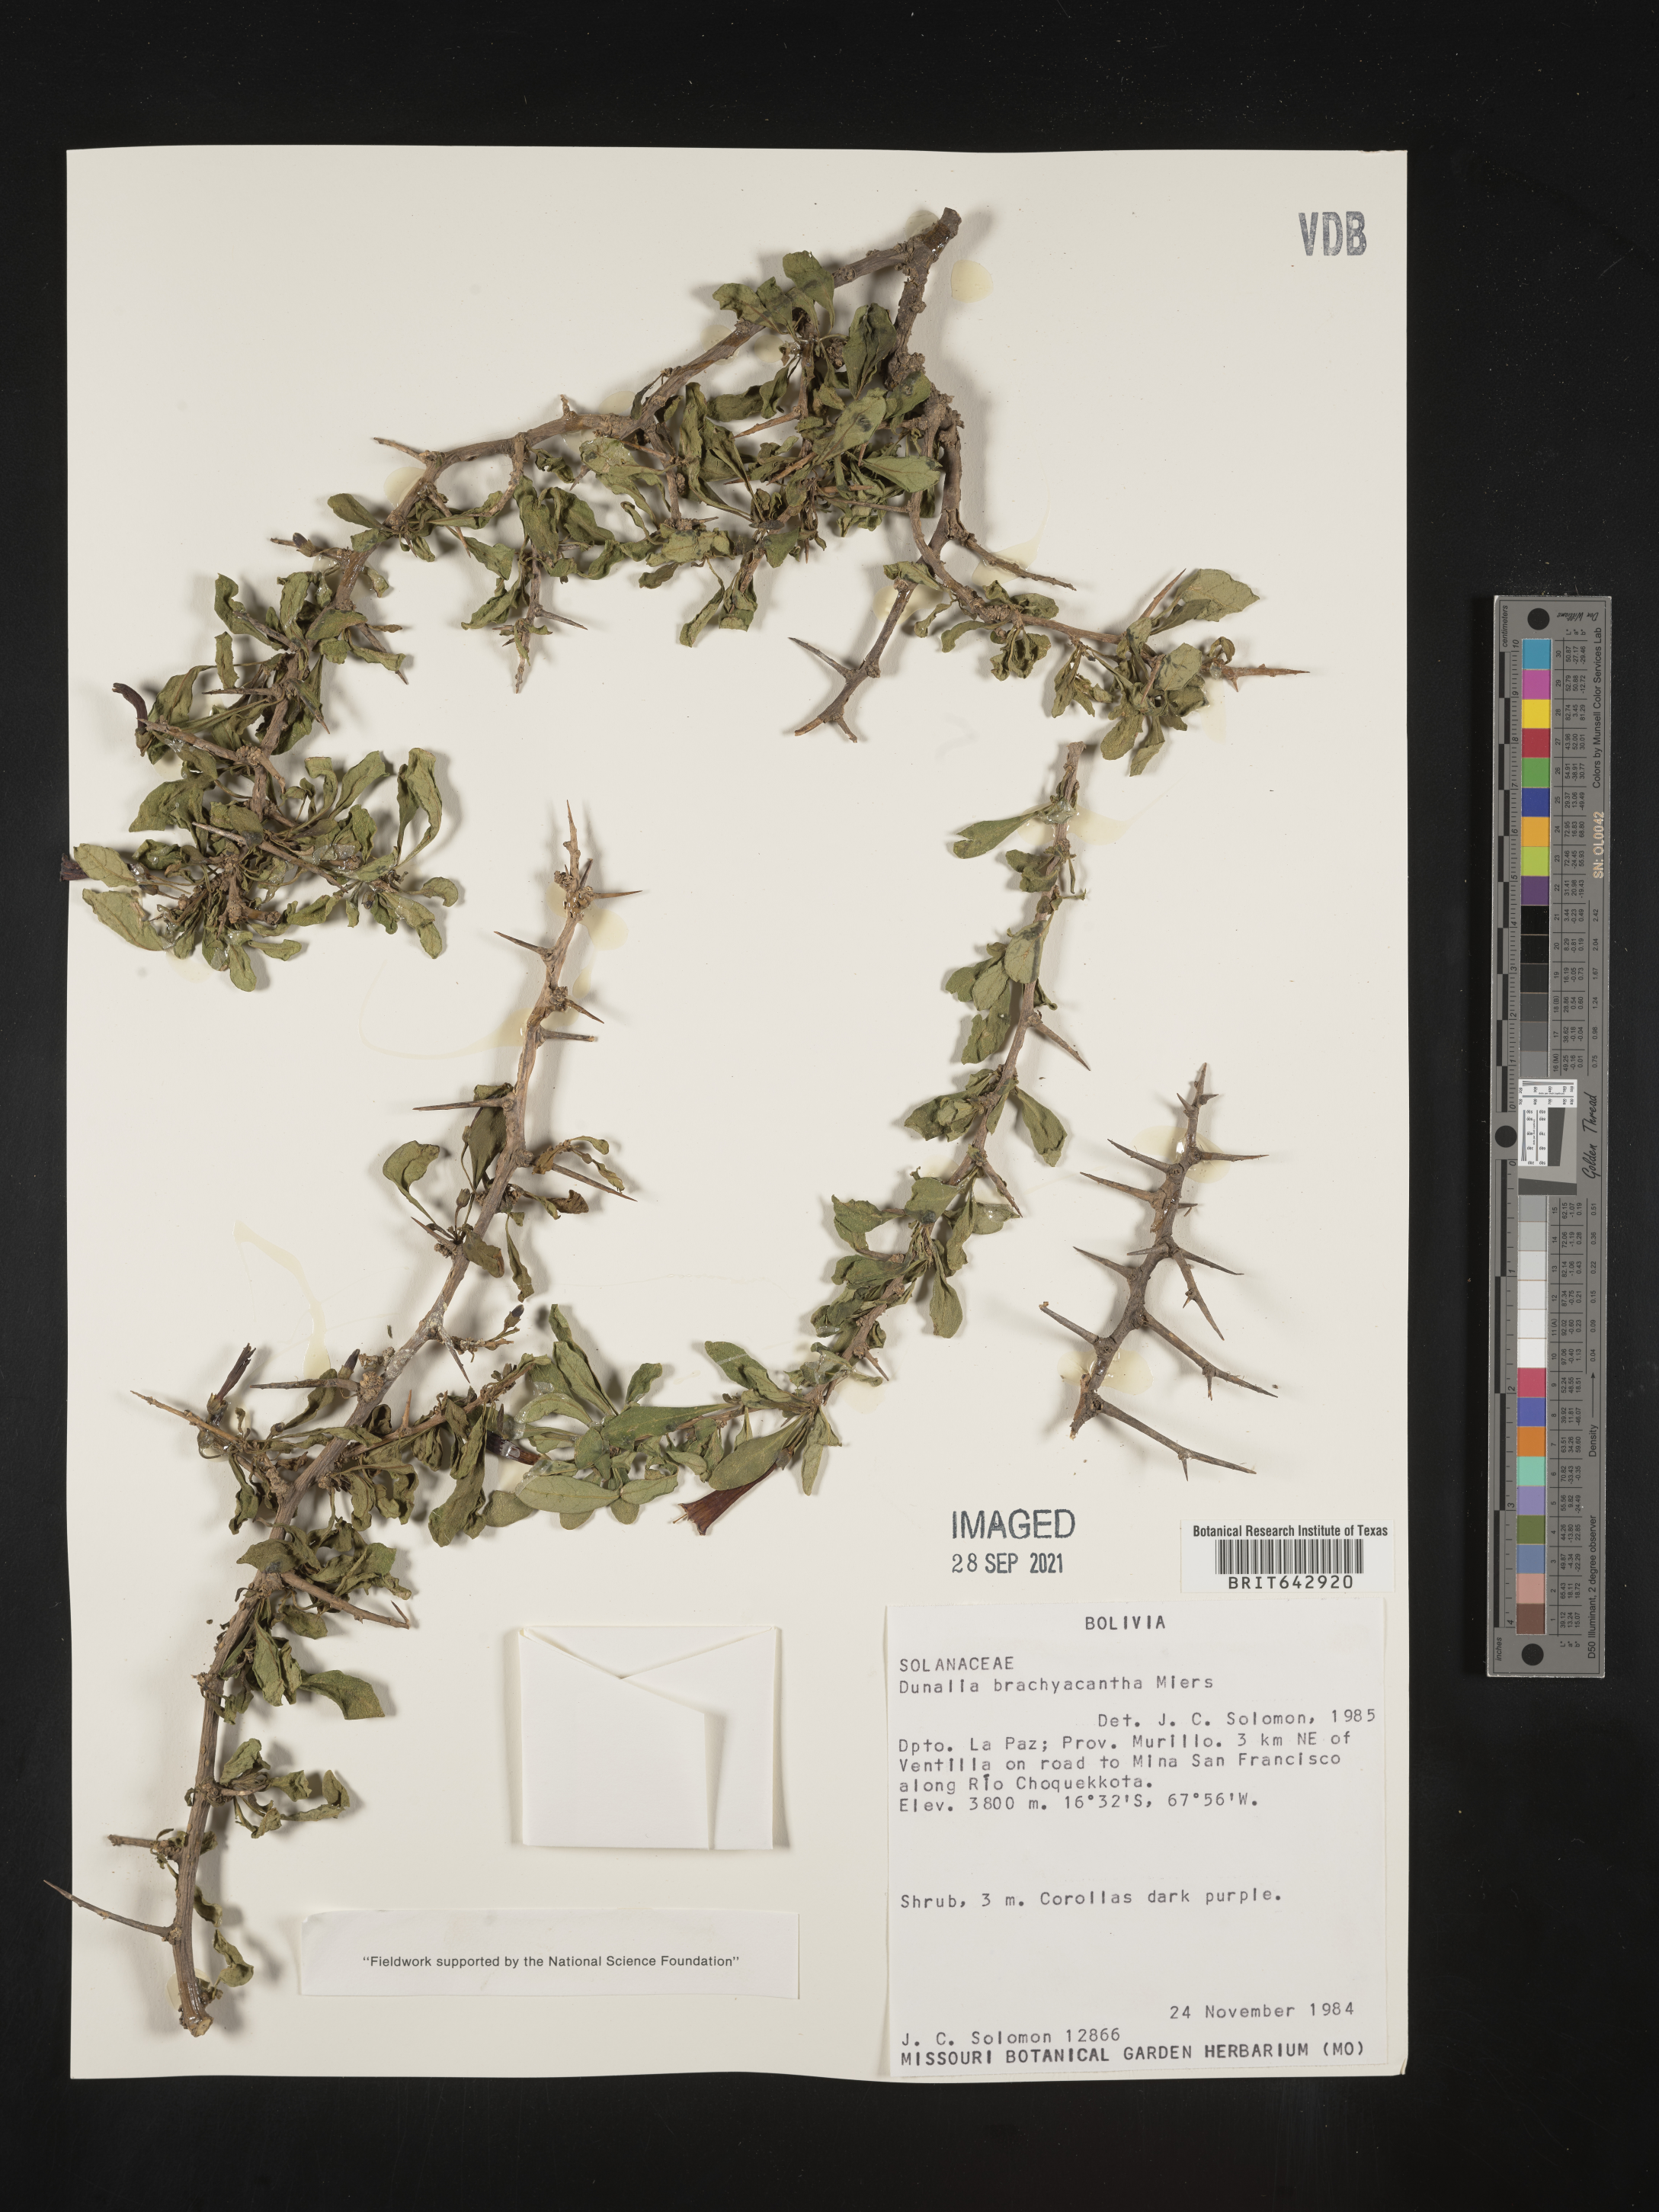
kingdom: Plantae
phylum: Tracheophyta
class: Magnoliopsida
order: Solanales
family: Solanaceae
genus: Dunalia
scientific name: Dunalia
